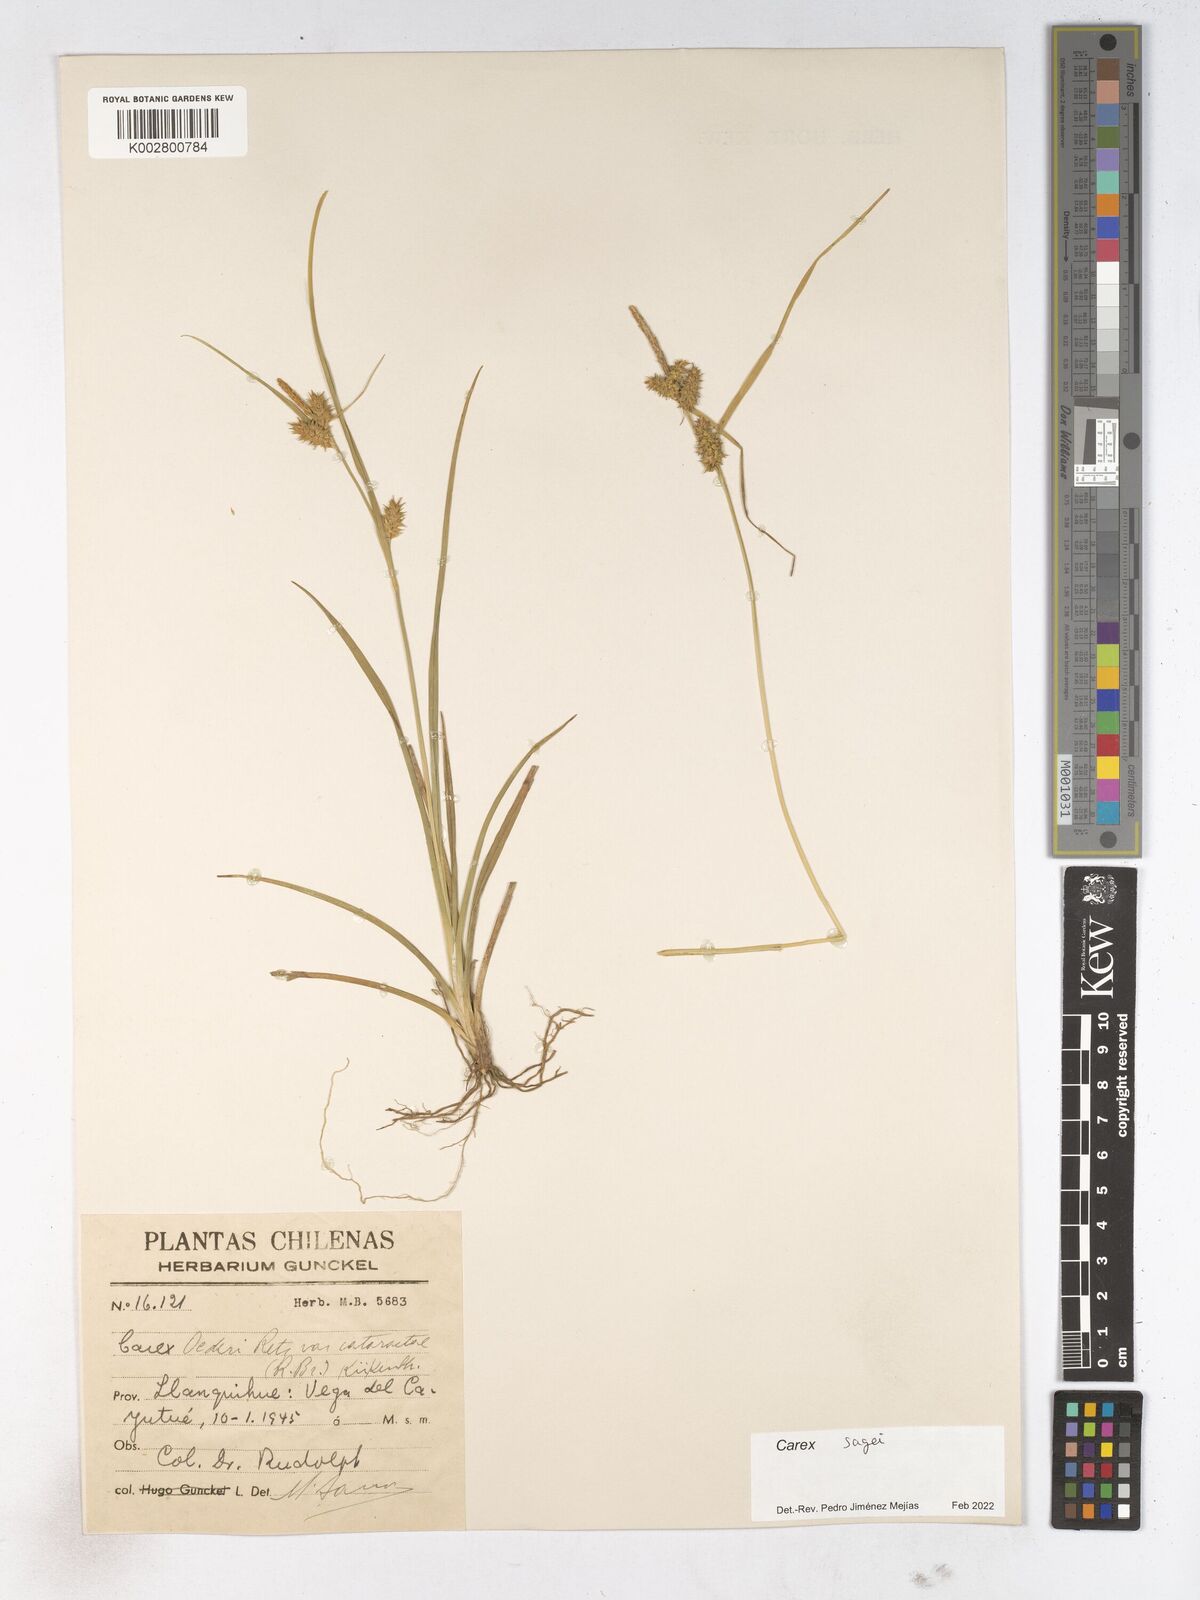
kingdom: Plantae
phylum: Tracheophyta
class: Liliopsida
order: Poales
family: Cyperaceae
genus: Carex
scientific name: Carex sagei
